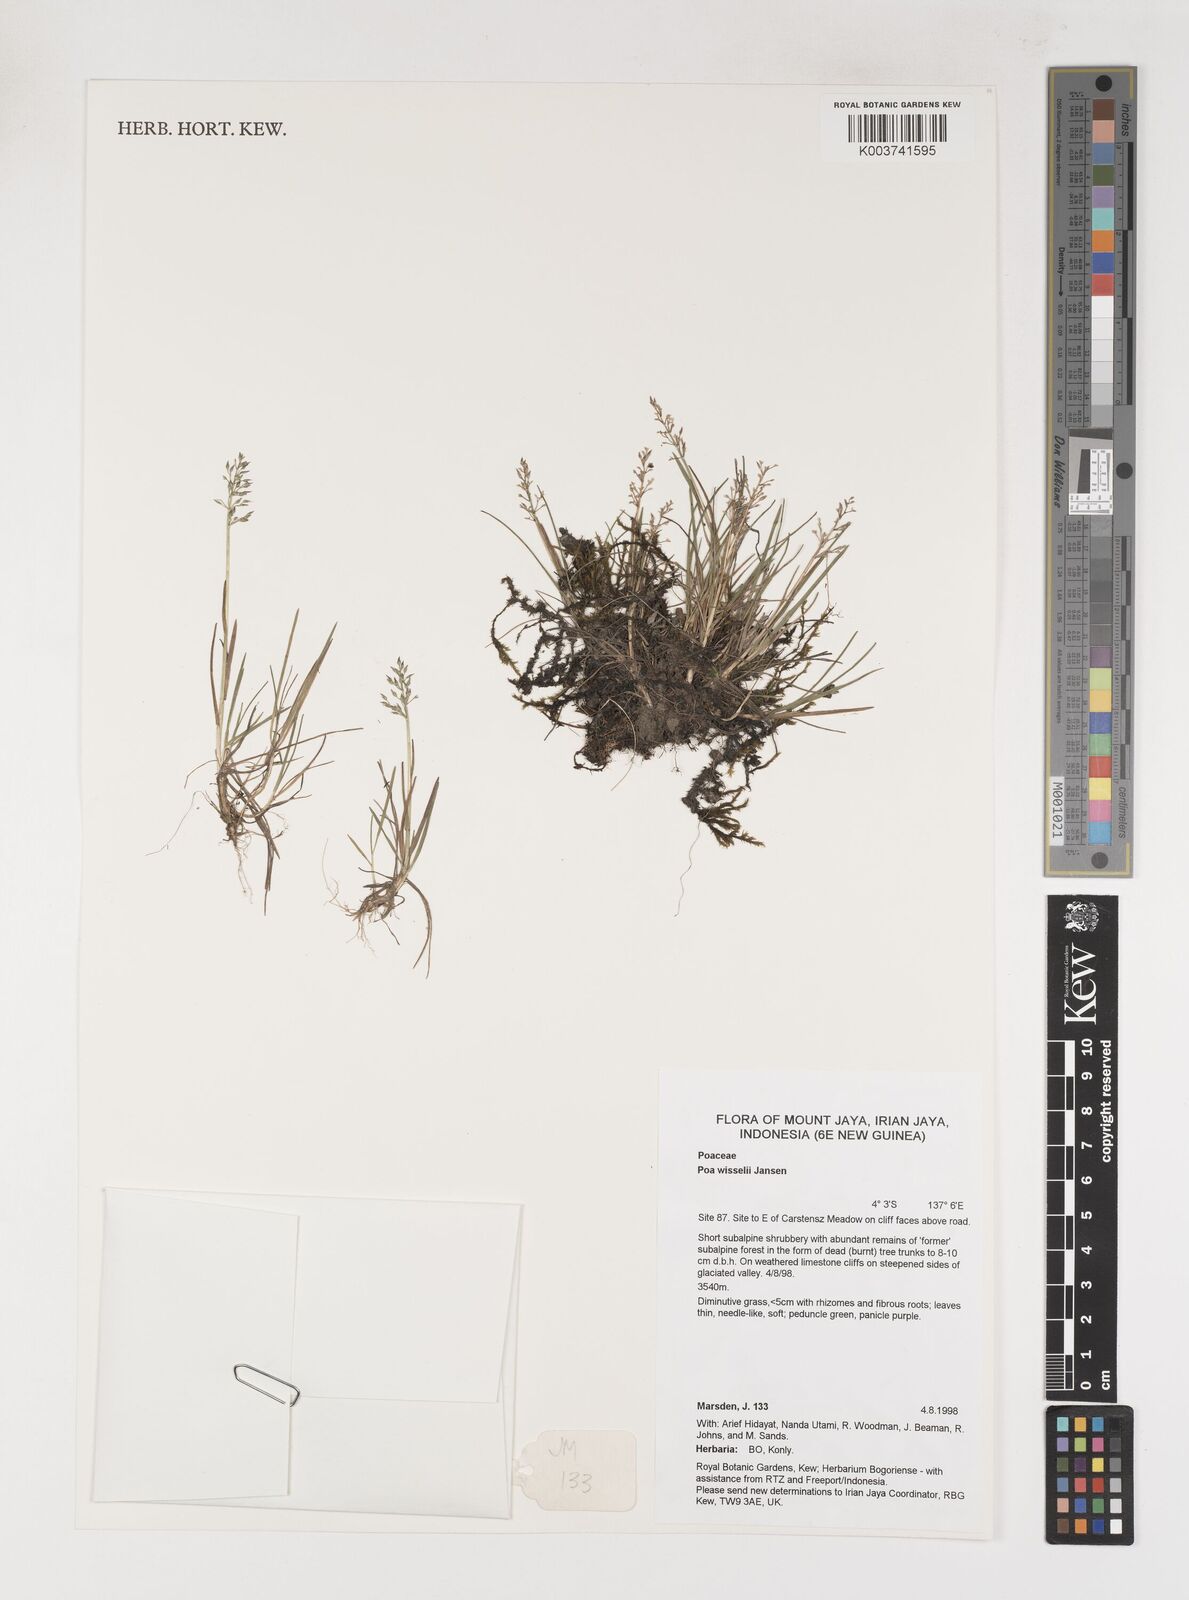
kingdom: Plantae
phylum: Tracheophyta
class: Liliopsida
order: Poales
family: Poaceae
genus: Poa
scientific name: Poa wisselii
